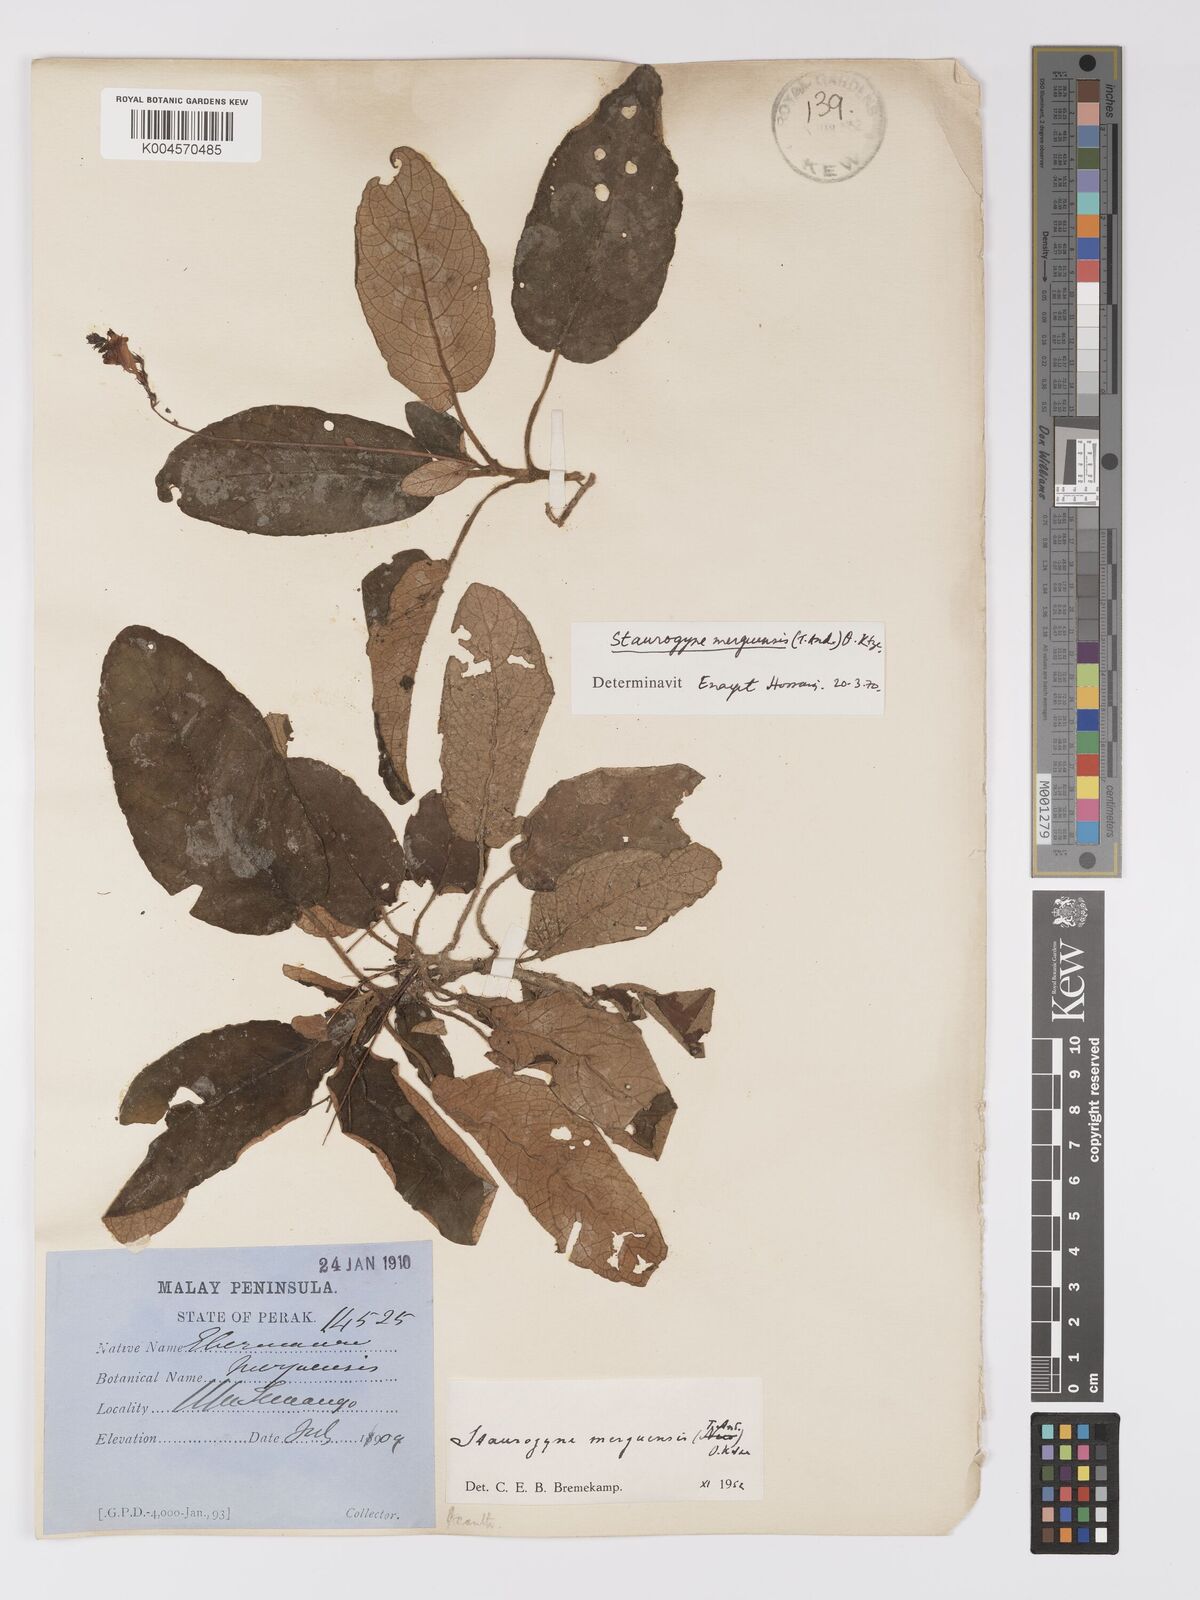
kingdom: Plantae
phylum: Tracheophyta
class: Magnoliopsida
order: Lamiales
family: Acanthaceae
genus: Staurogyne
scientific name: Staurogyne merguensis
